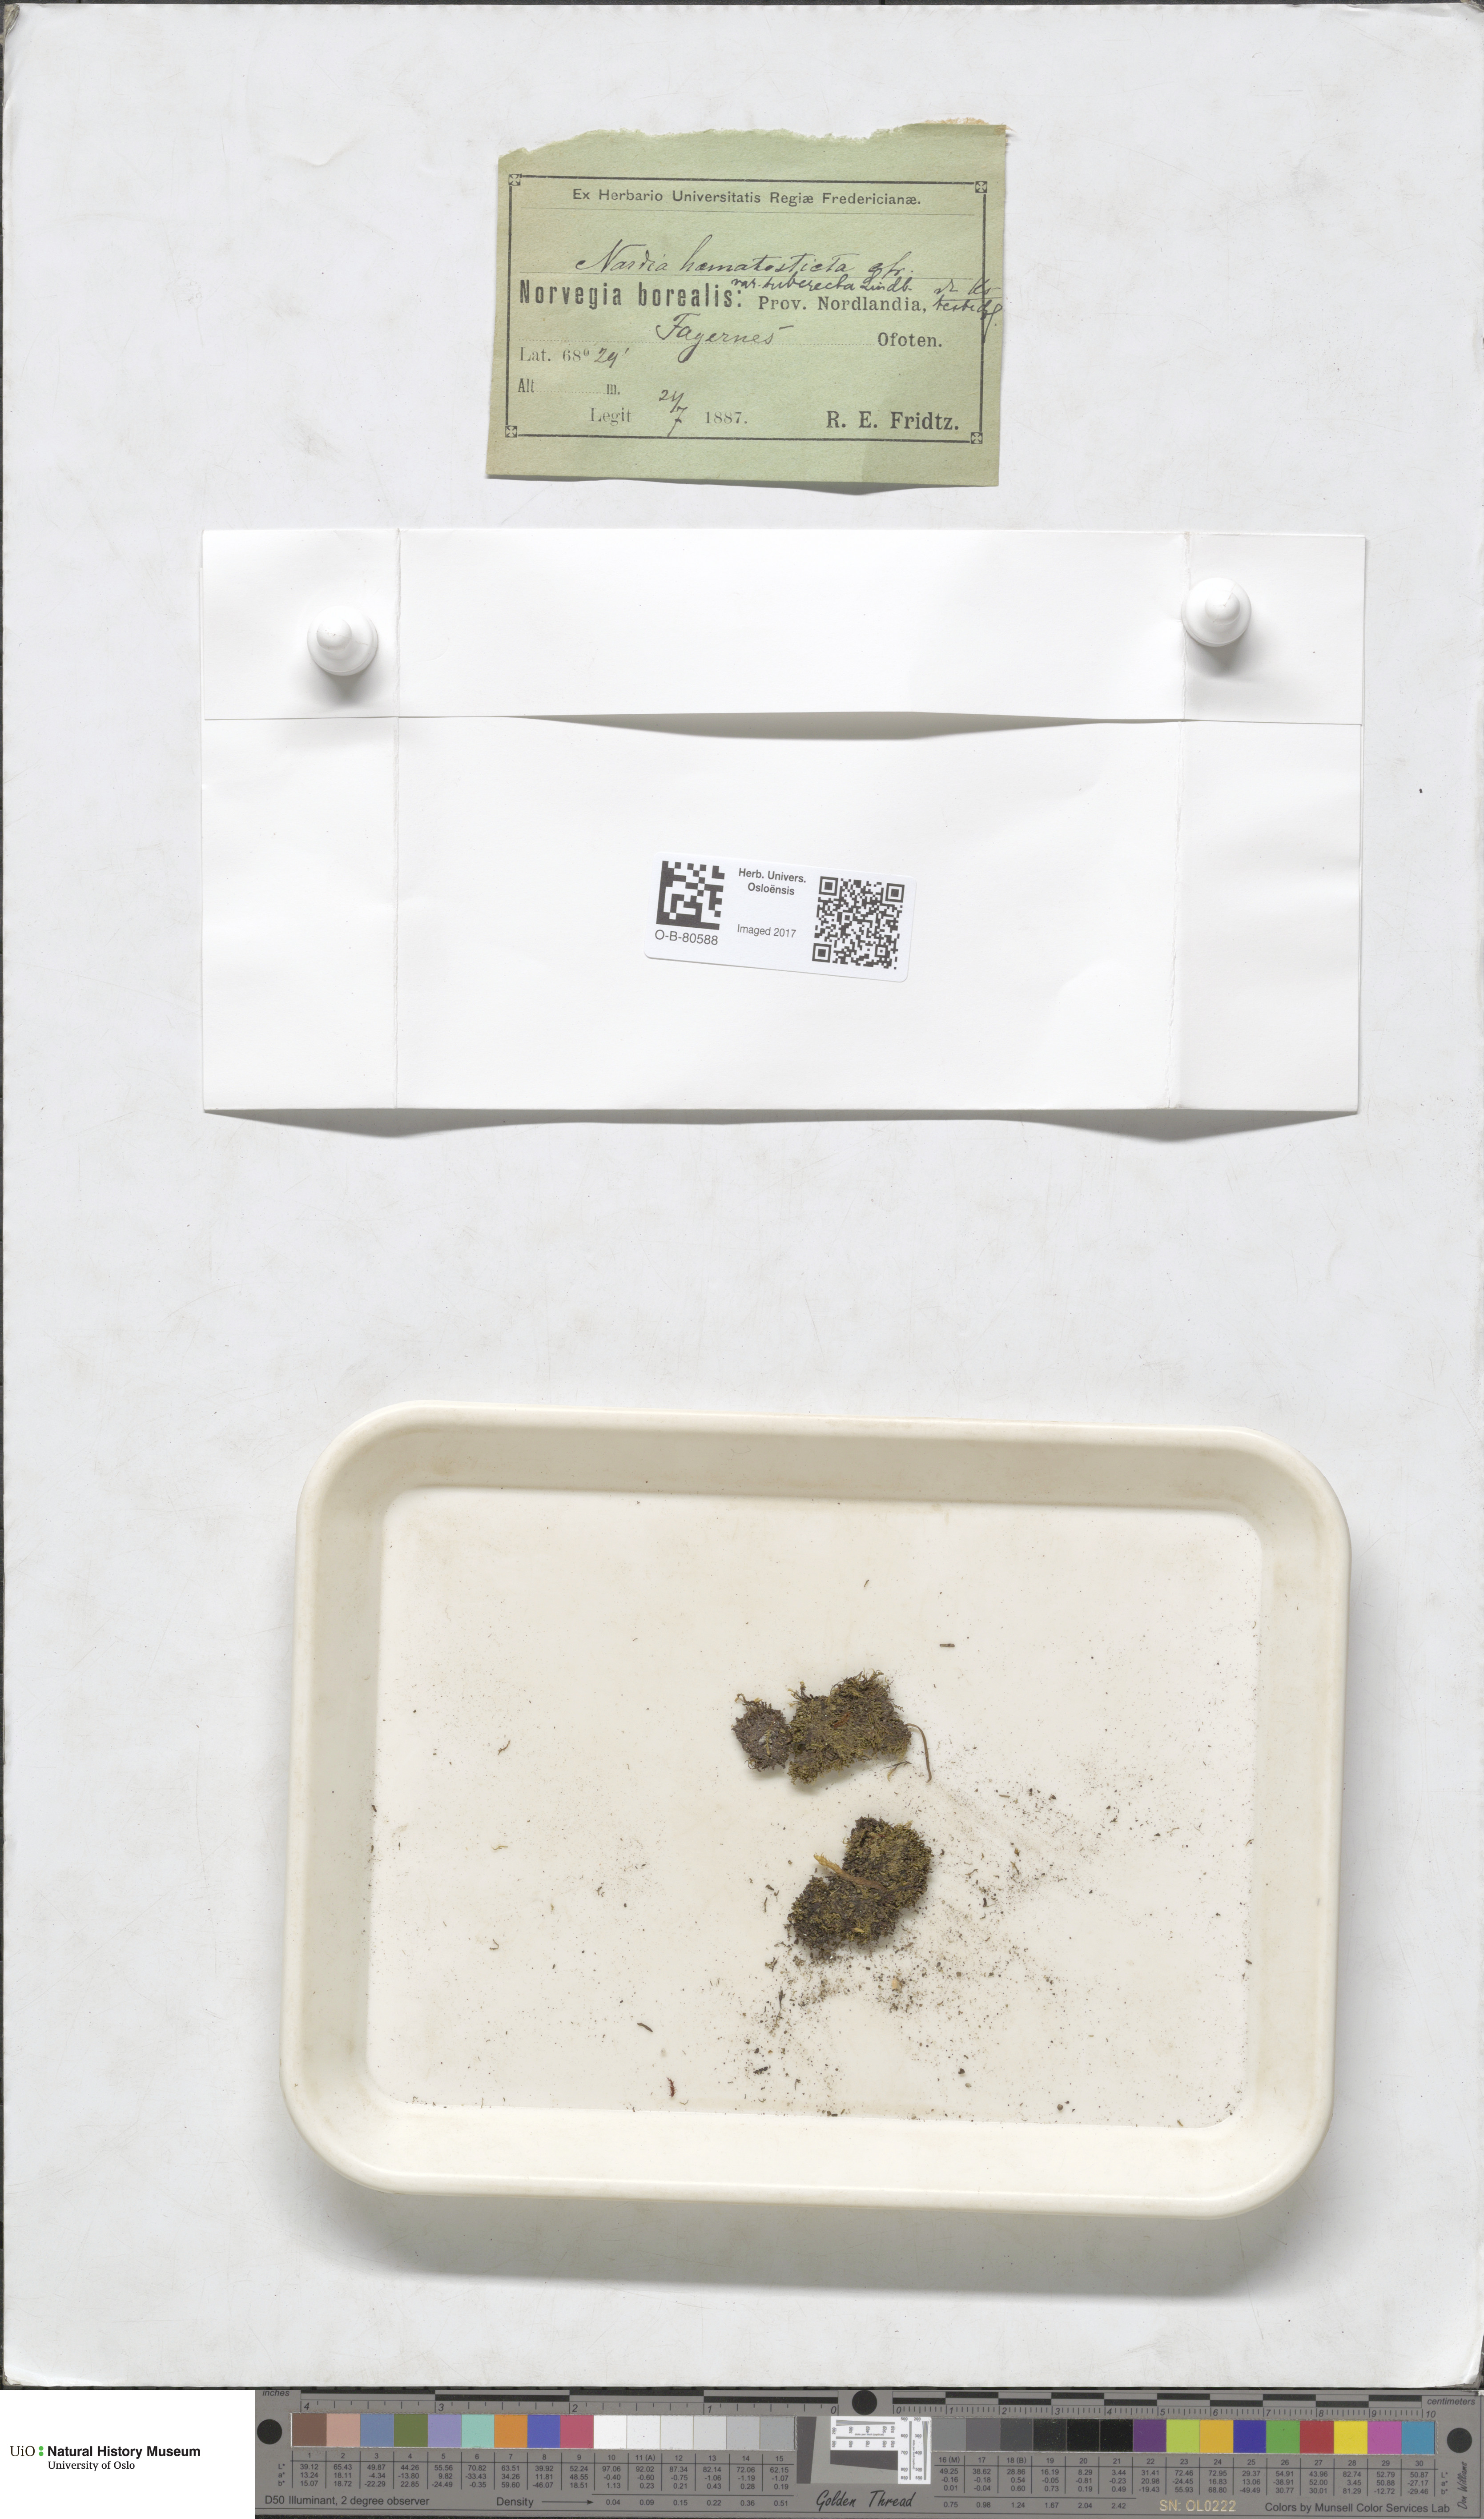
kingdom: Plantae
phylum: Marchantiophyta
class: Jungermanniopsida
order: Jungermanniales
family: Gymnomitriaceae
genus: Nardia
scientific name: Nardia geoscyphus
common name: Earth-cup flapwort
